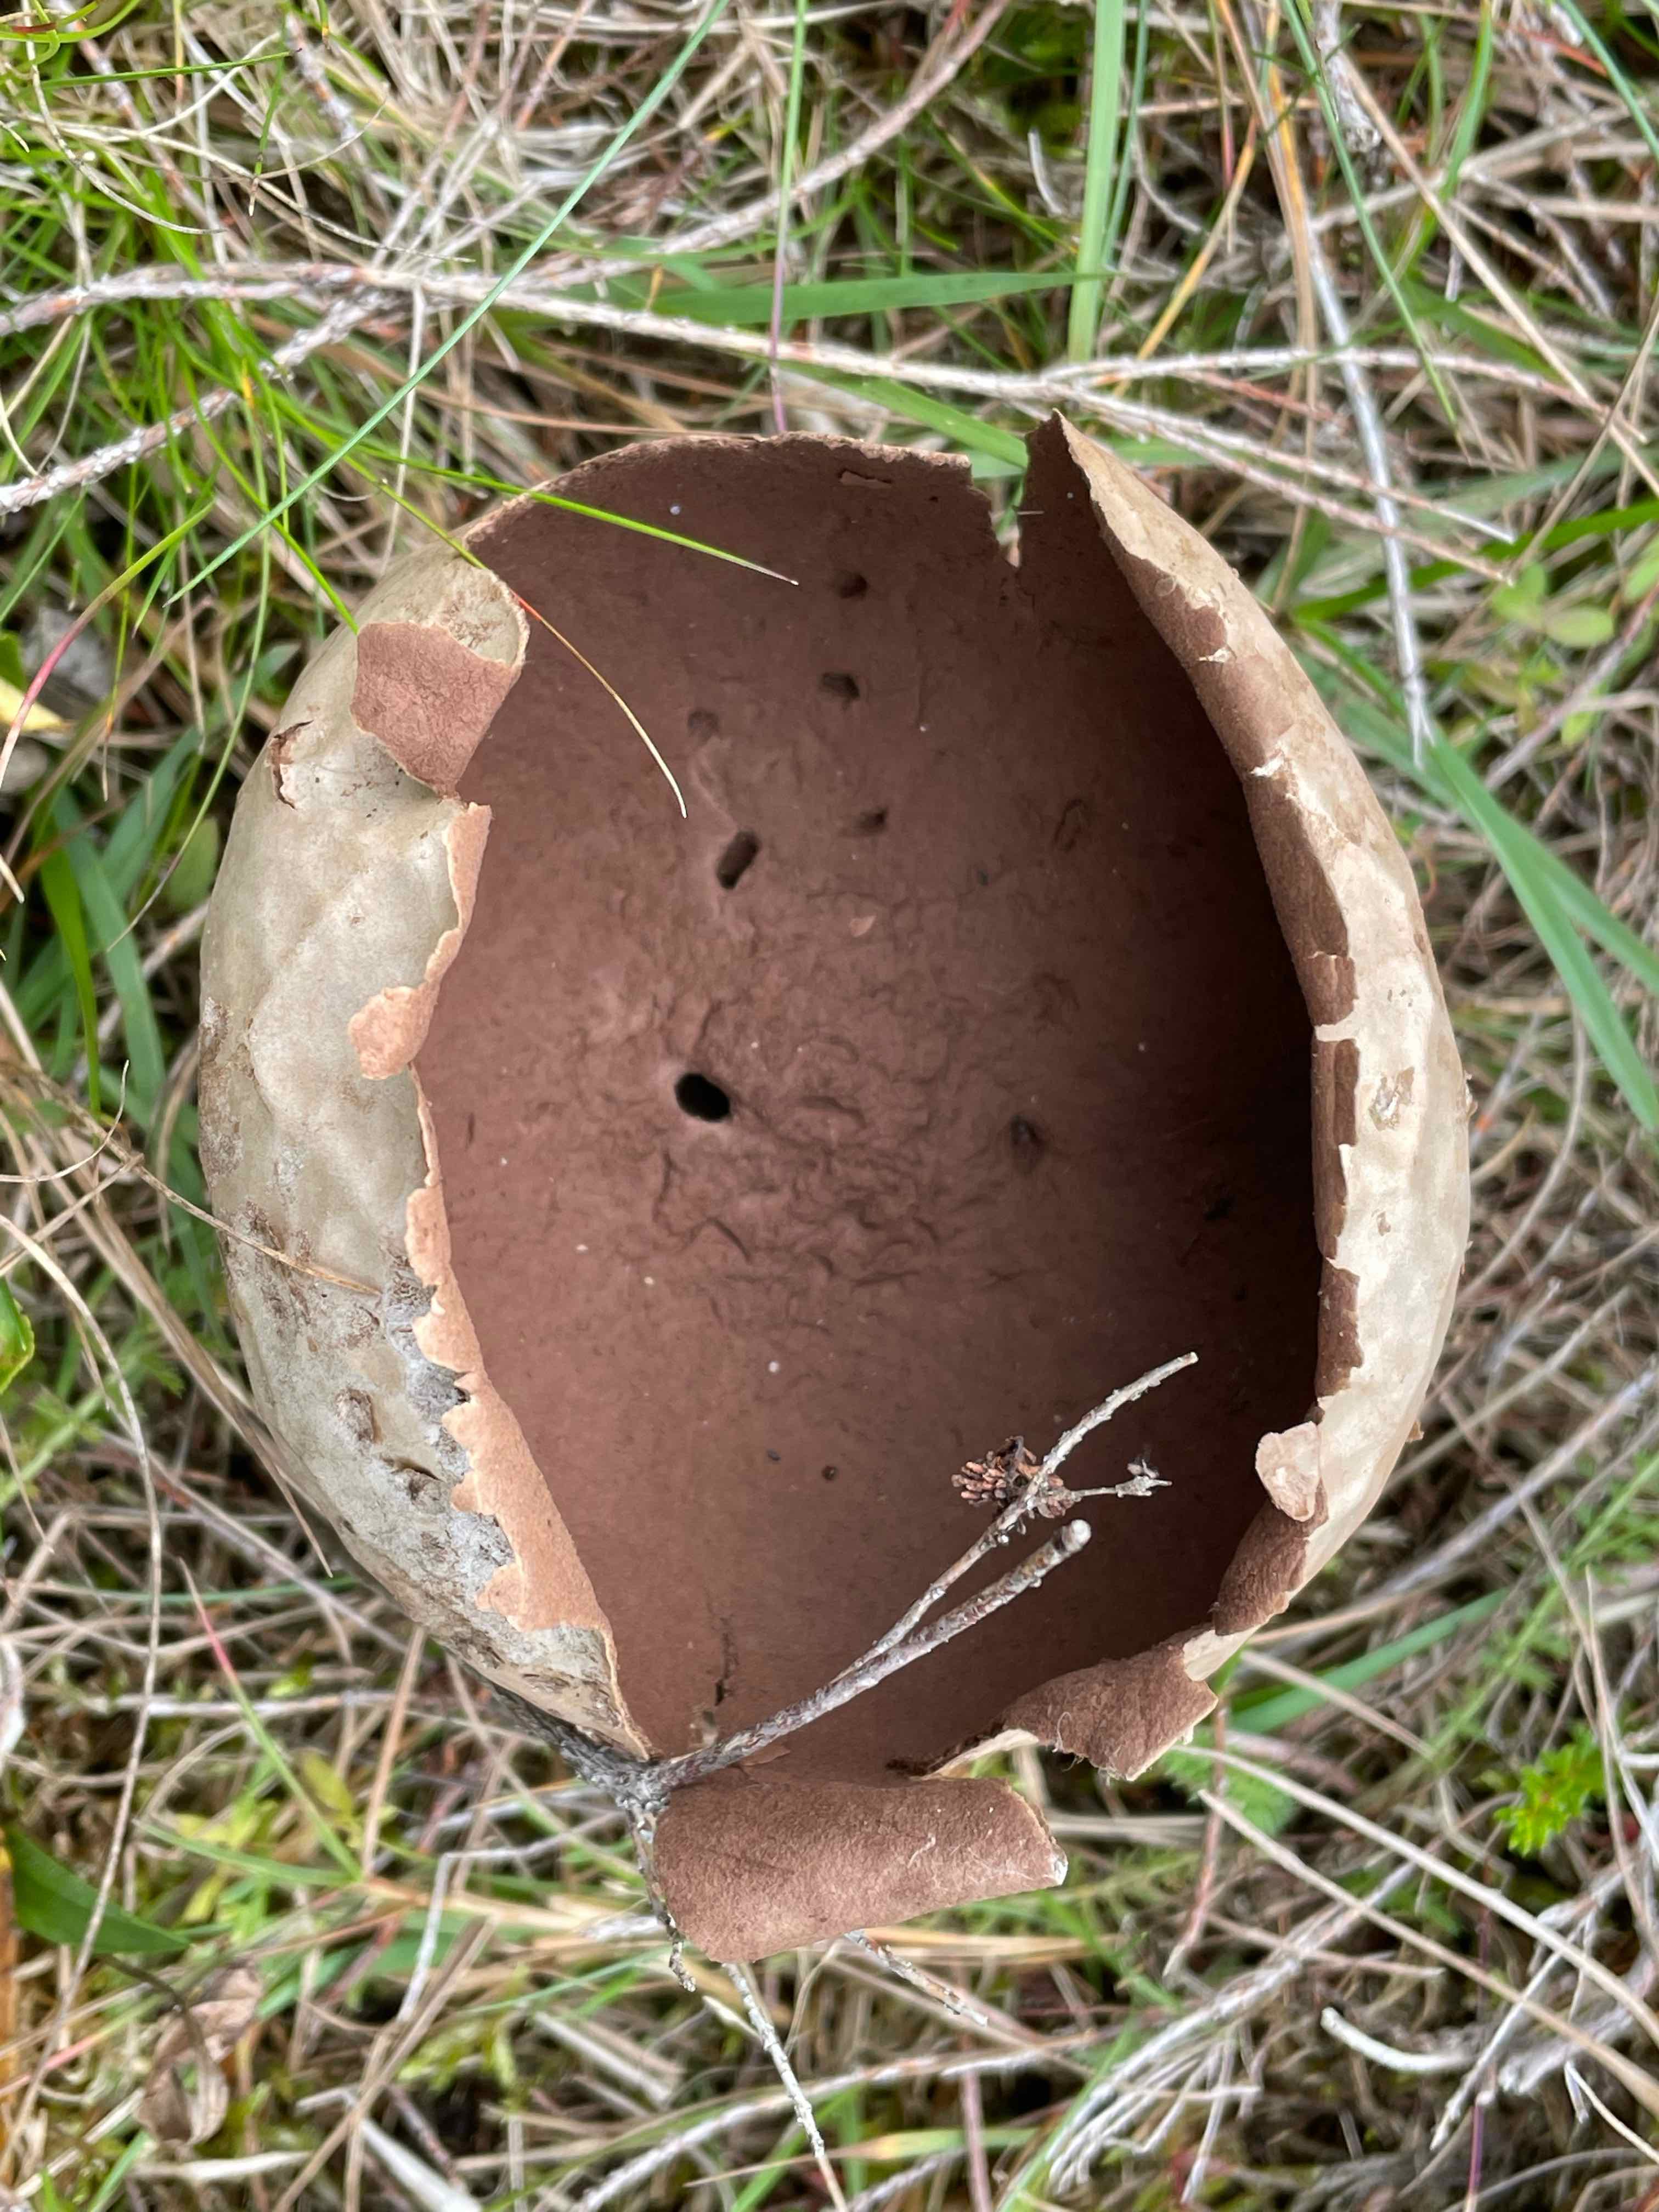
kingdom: Fungi
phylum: Basidiomycota
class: Agaricomycetes
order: Agaricales
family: Lycoperdaceae
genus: Bovistella
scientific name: Bovistella utriformis
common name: skællet støvbold
